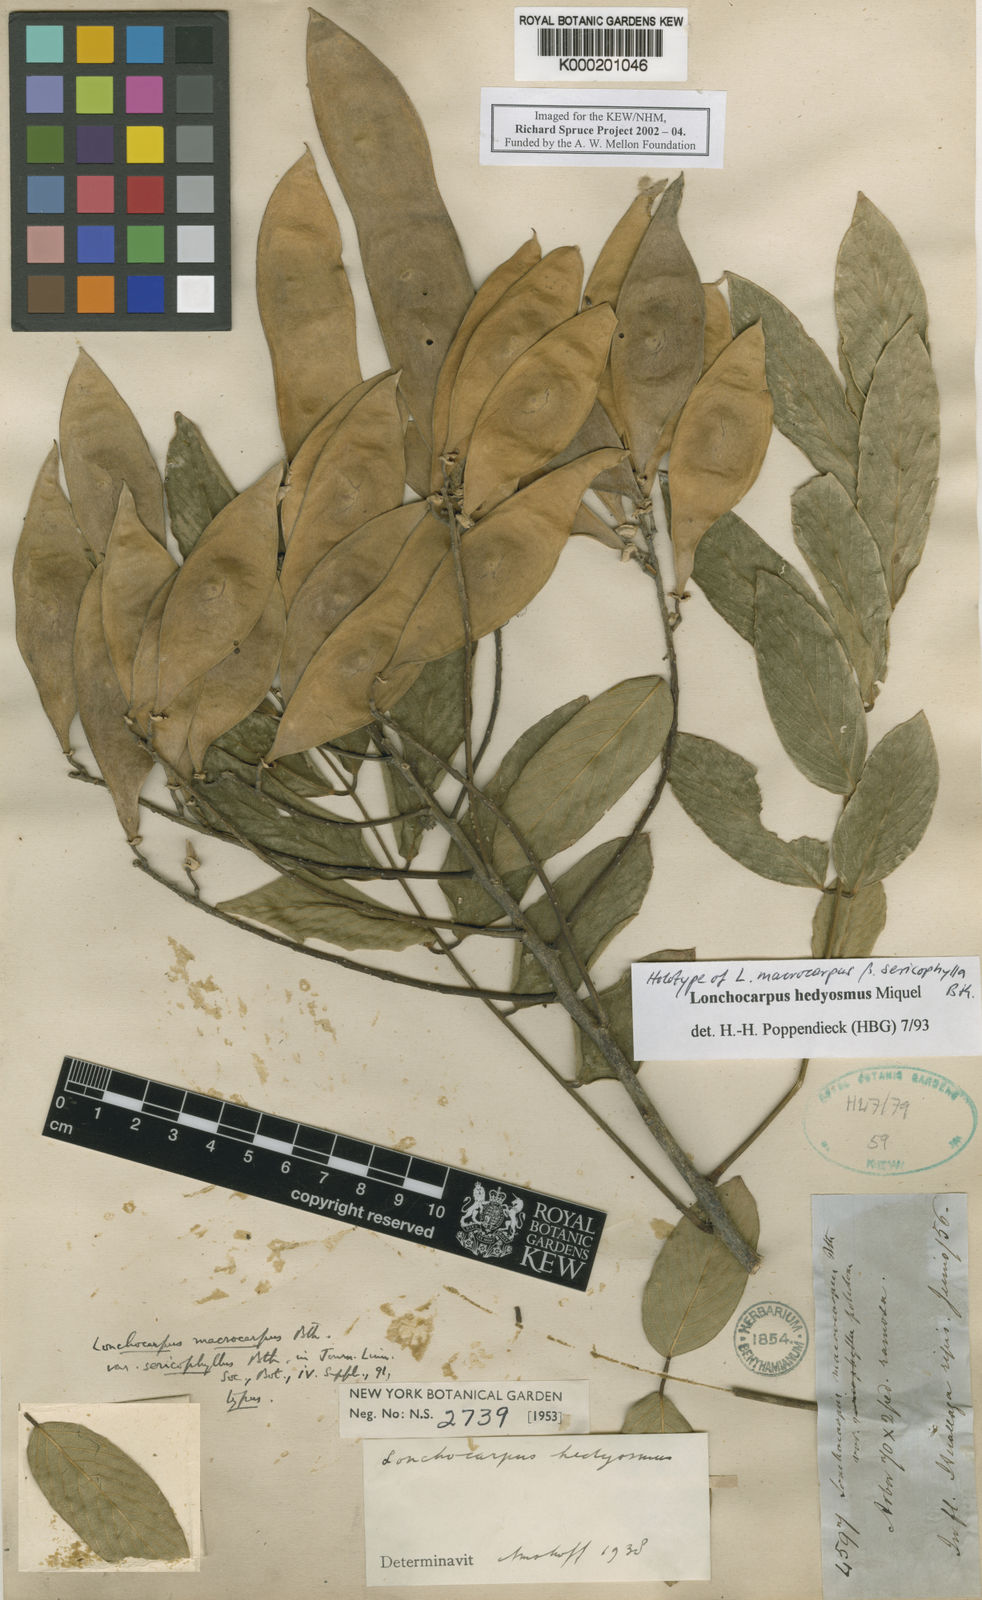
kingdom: Plantae
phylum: Tracheophyta
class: Magnoliopsida
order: Fabales
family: Fabaceae
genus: Lonchocarpus
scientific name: Lonchocarpus hedyosmus
